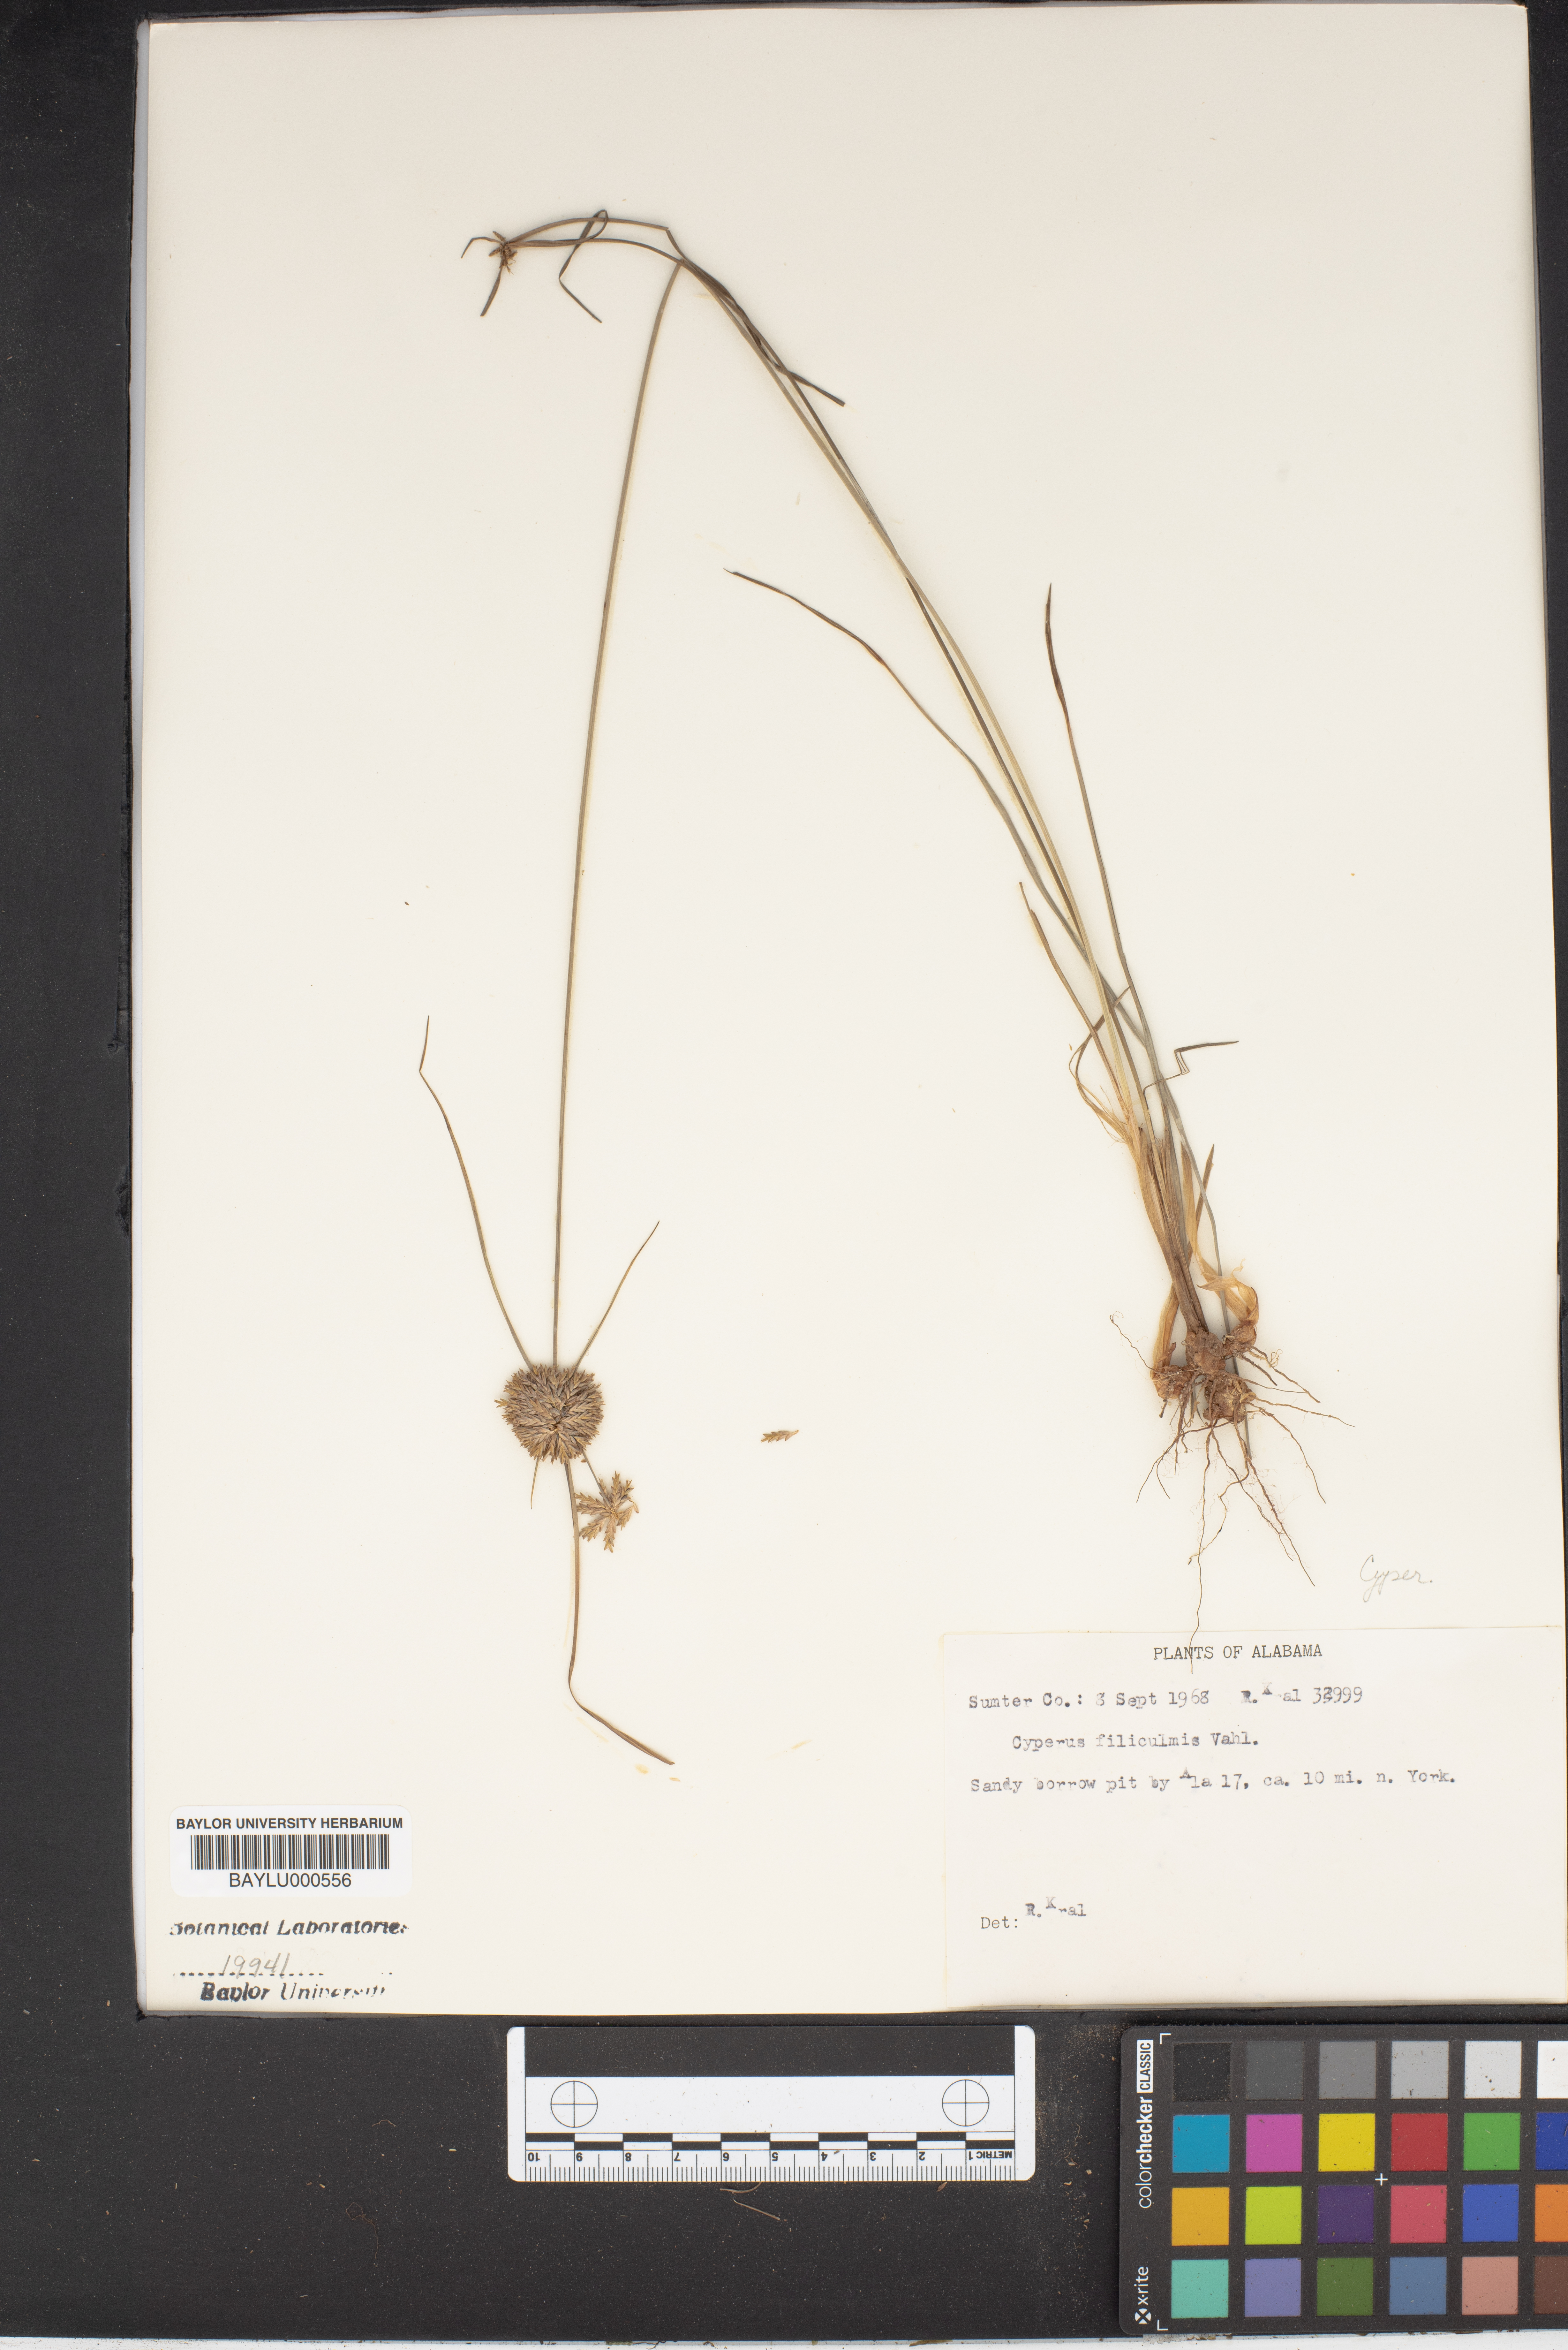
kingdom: Plantae
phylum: Tracheophyta
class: Liliopsida
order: Poales
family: Cyperaceae
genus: Cyperus
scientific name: Cyperus lanceolatus
